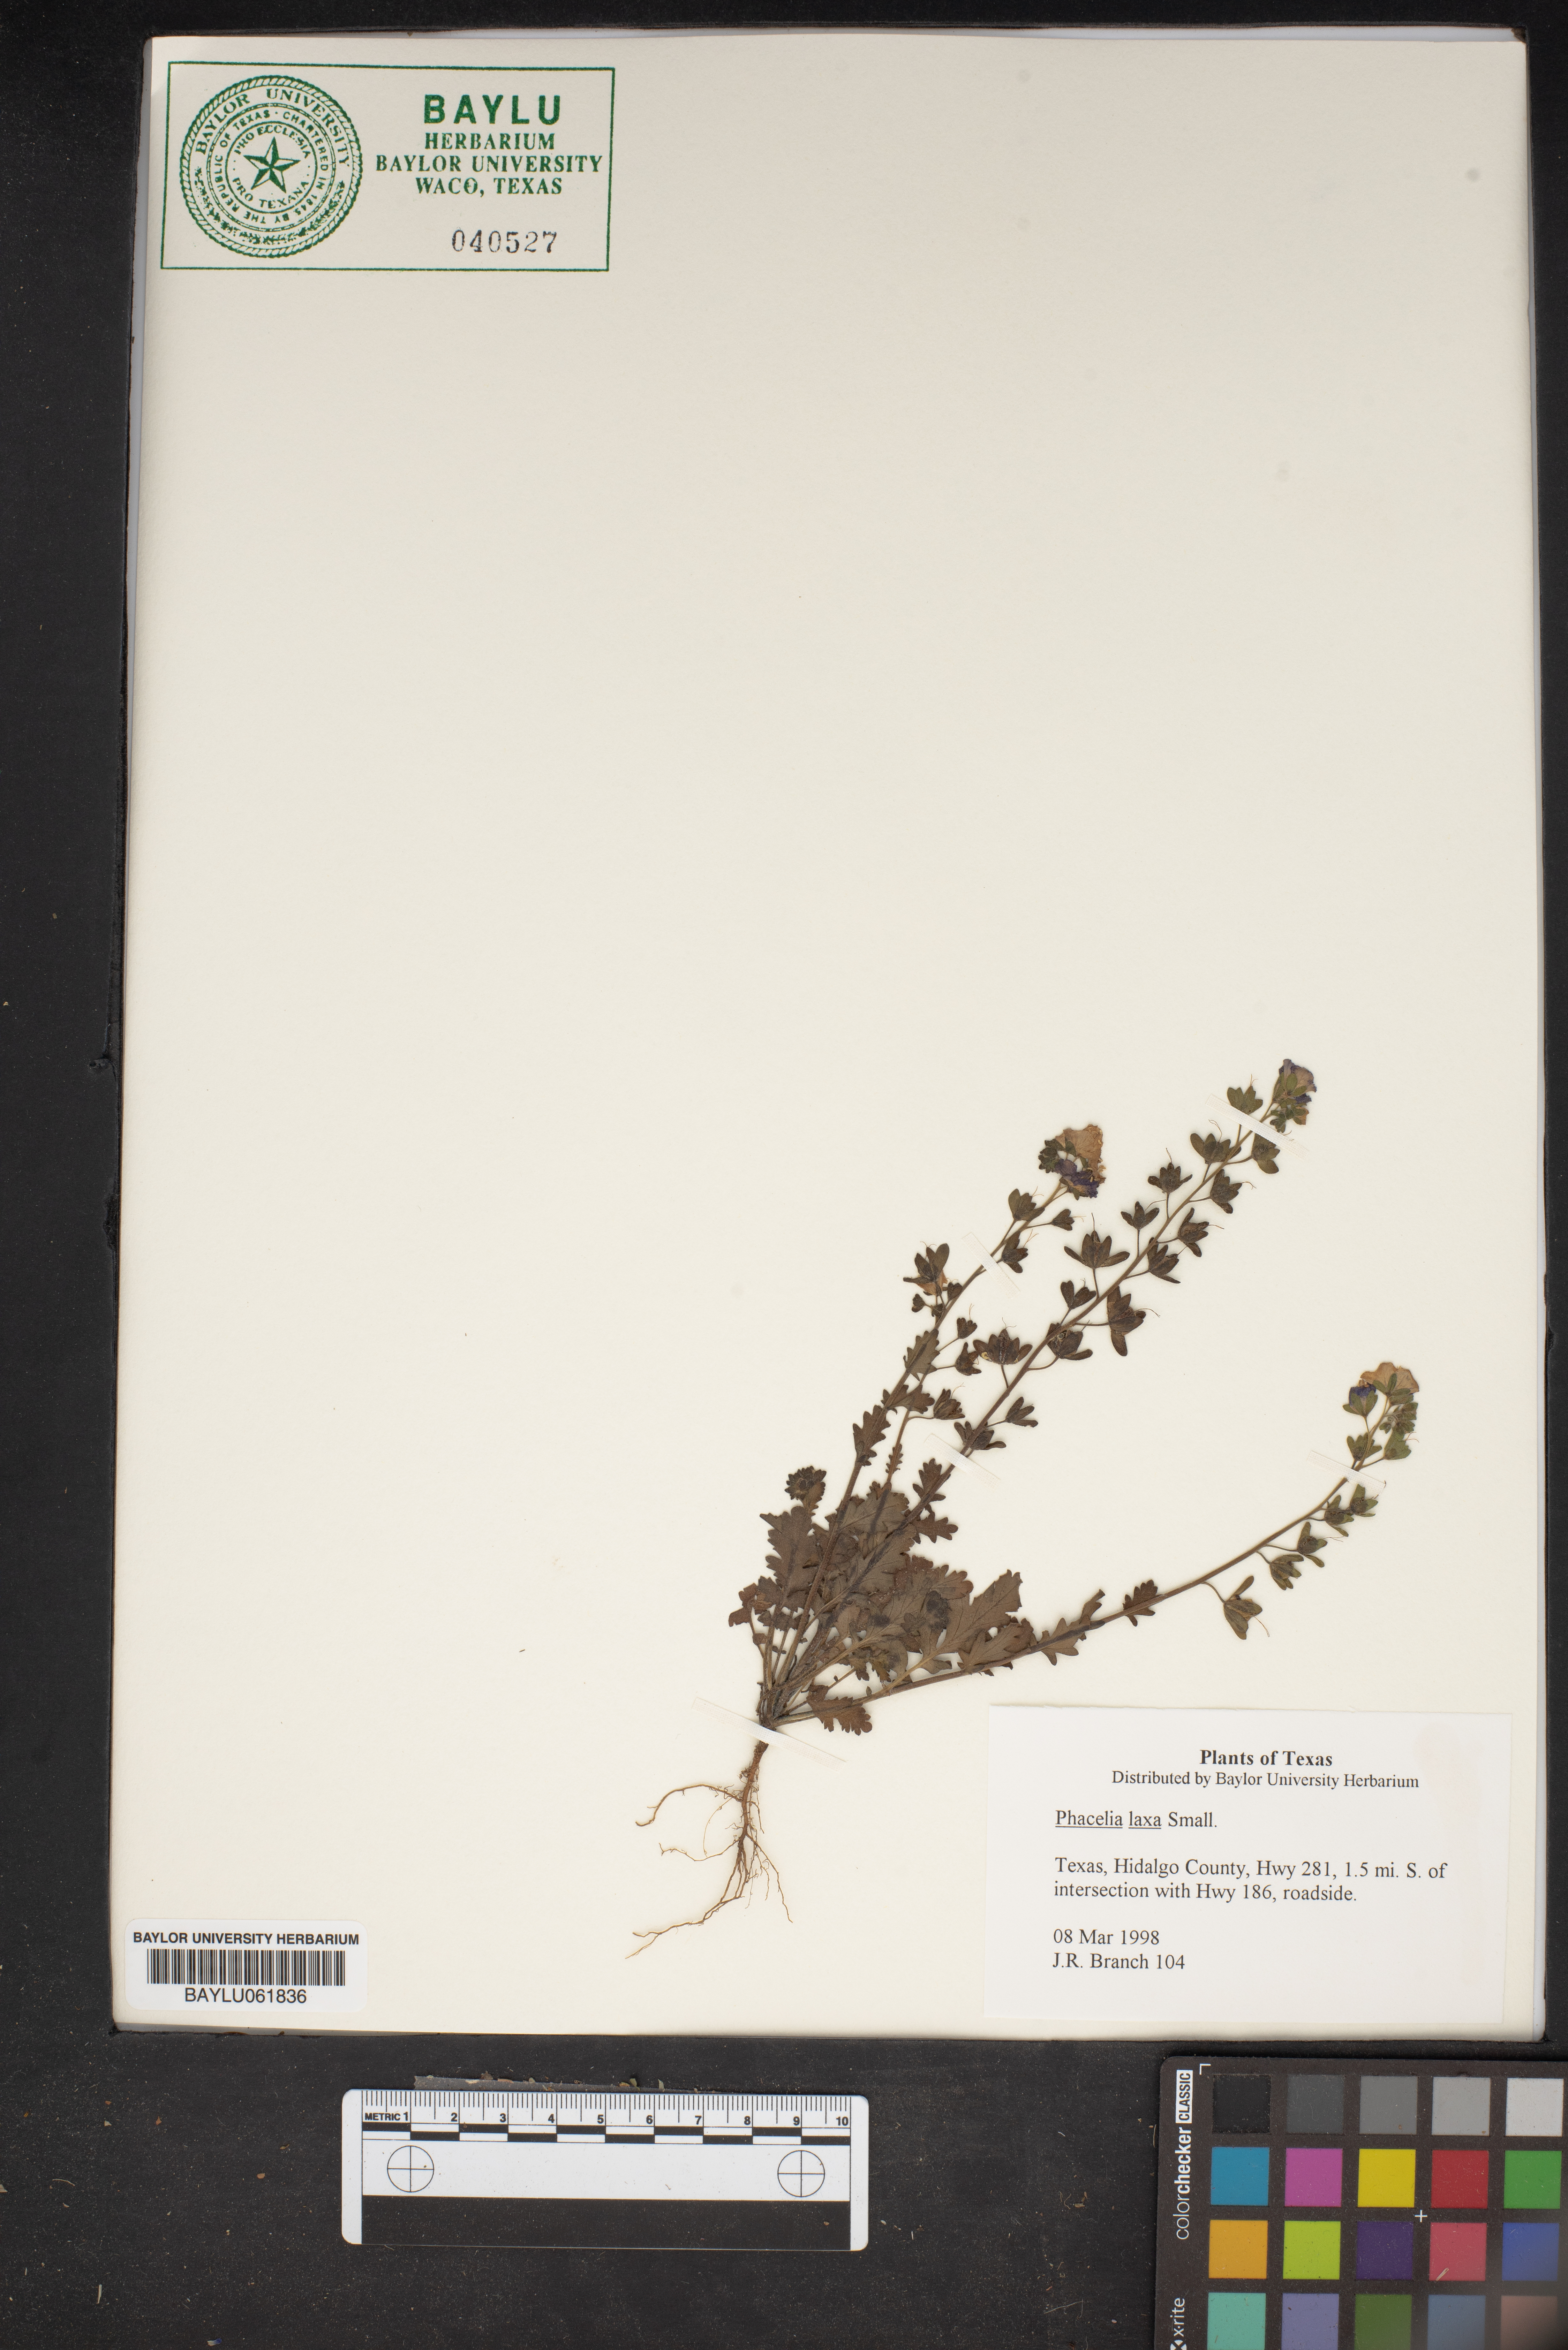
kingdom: Plantae
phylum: Tracheophyta
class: Magnoliopsida
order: Boraginales
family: Hydrophyllaceae
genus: Phacelia
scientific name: Phacelia laxa
